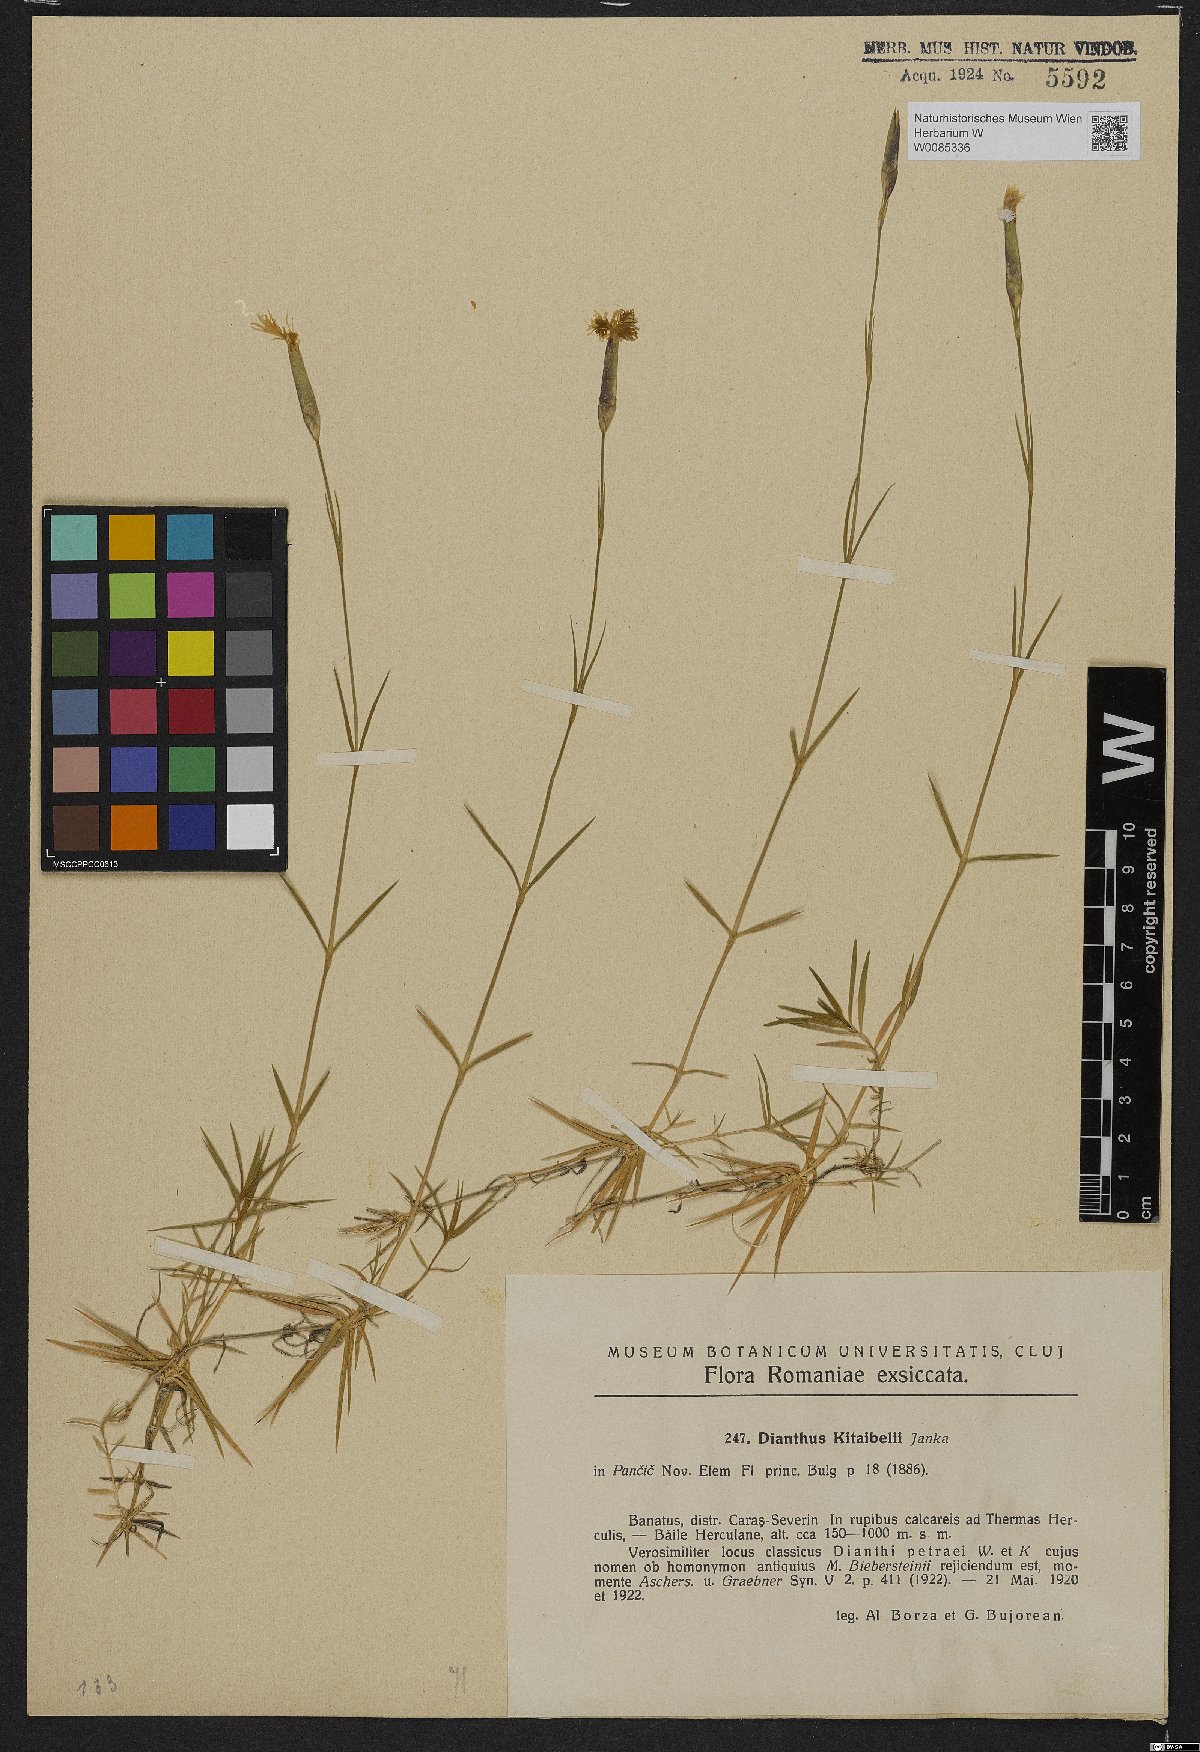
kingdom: Plantae
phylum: Tracheophyta
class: Magnoliopsida
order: Caryophyllales
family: Caryophyllaceae
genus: Dianthus
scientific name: Dianthus petraeus
